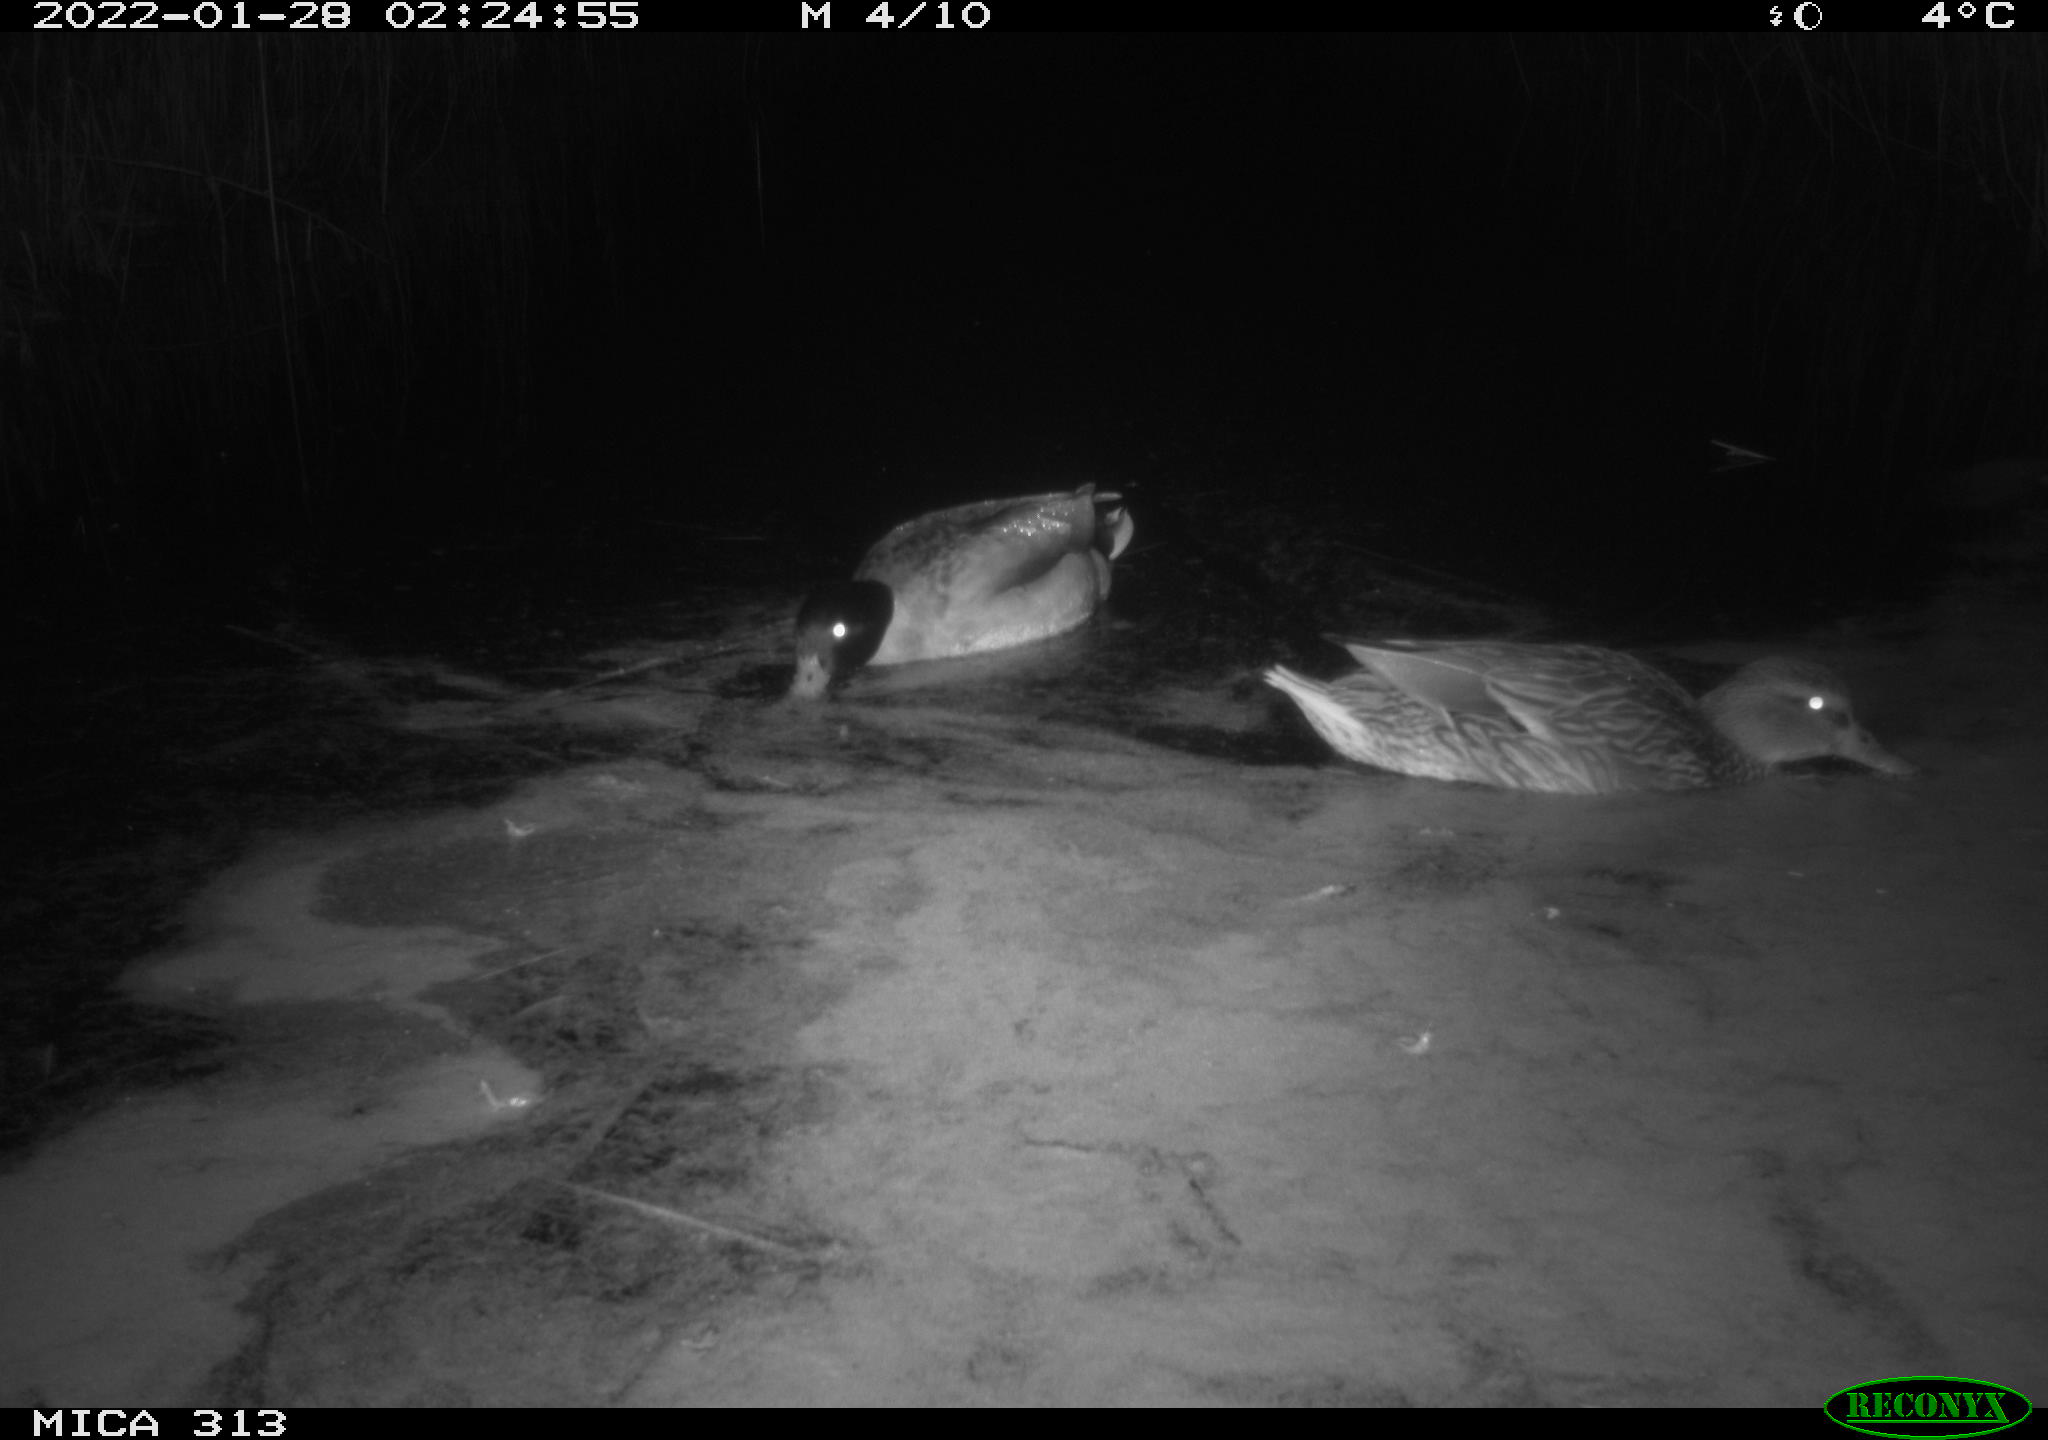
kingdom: Animalia
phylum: Chordata
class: Aves
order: Anseriformes
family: Anatidae
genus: Anas
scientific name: Anas
